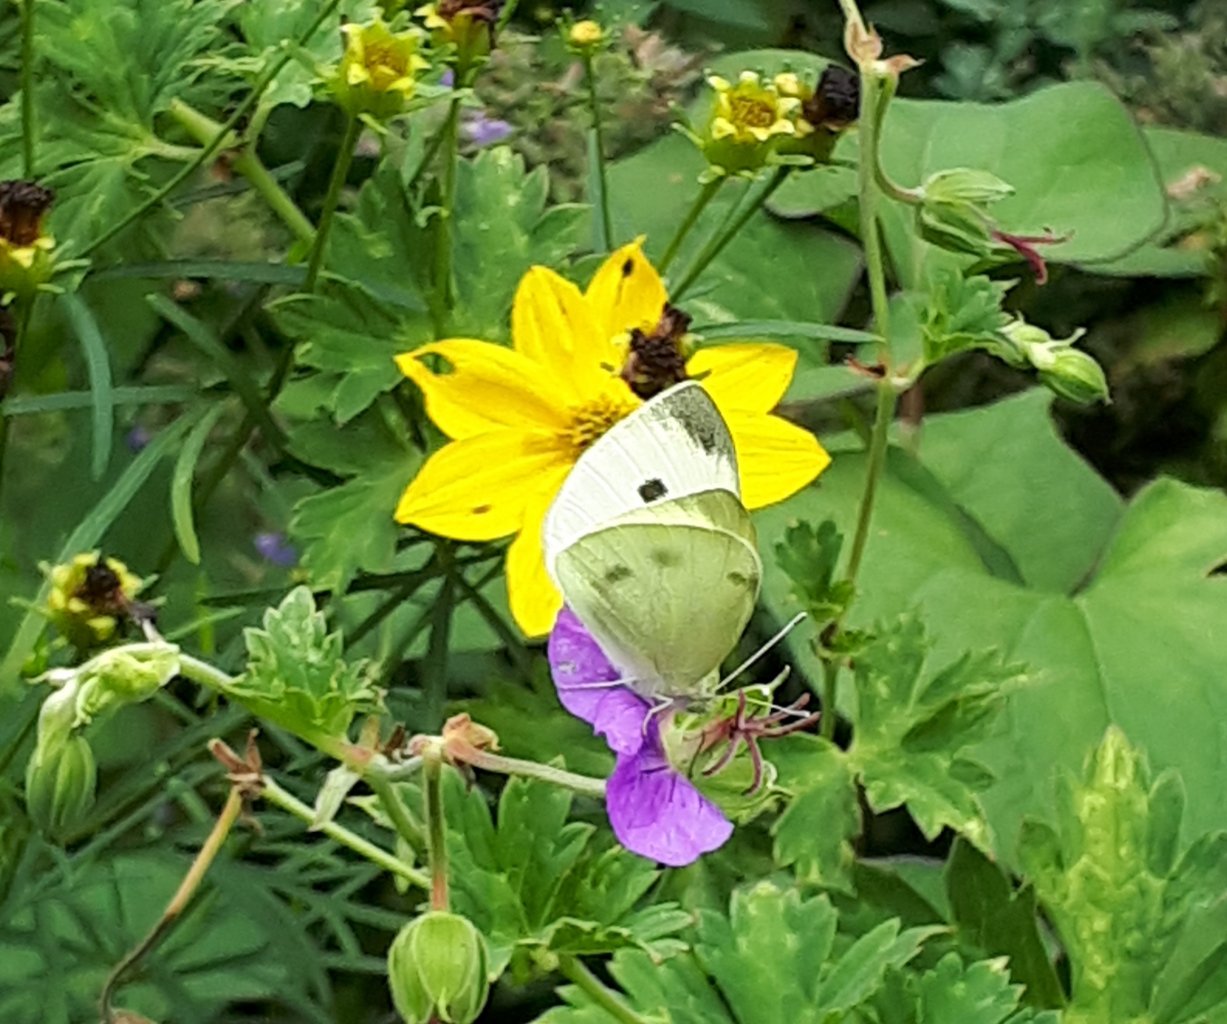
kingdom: Animalia
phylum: Arthropoda
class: Insecta
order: Lepidoptera
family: Pieridae
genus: Pieris
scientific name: Pieris rapae
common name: Cabbage White
